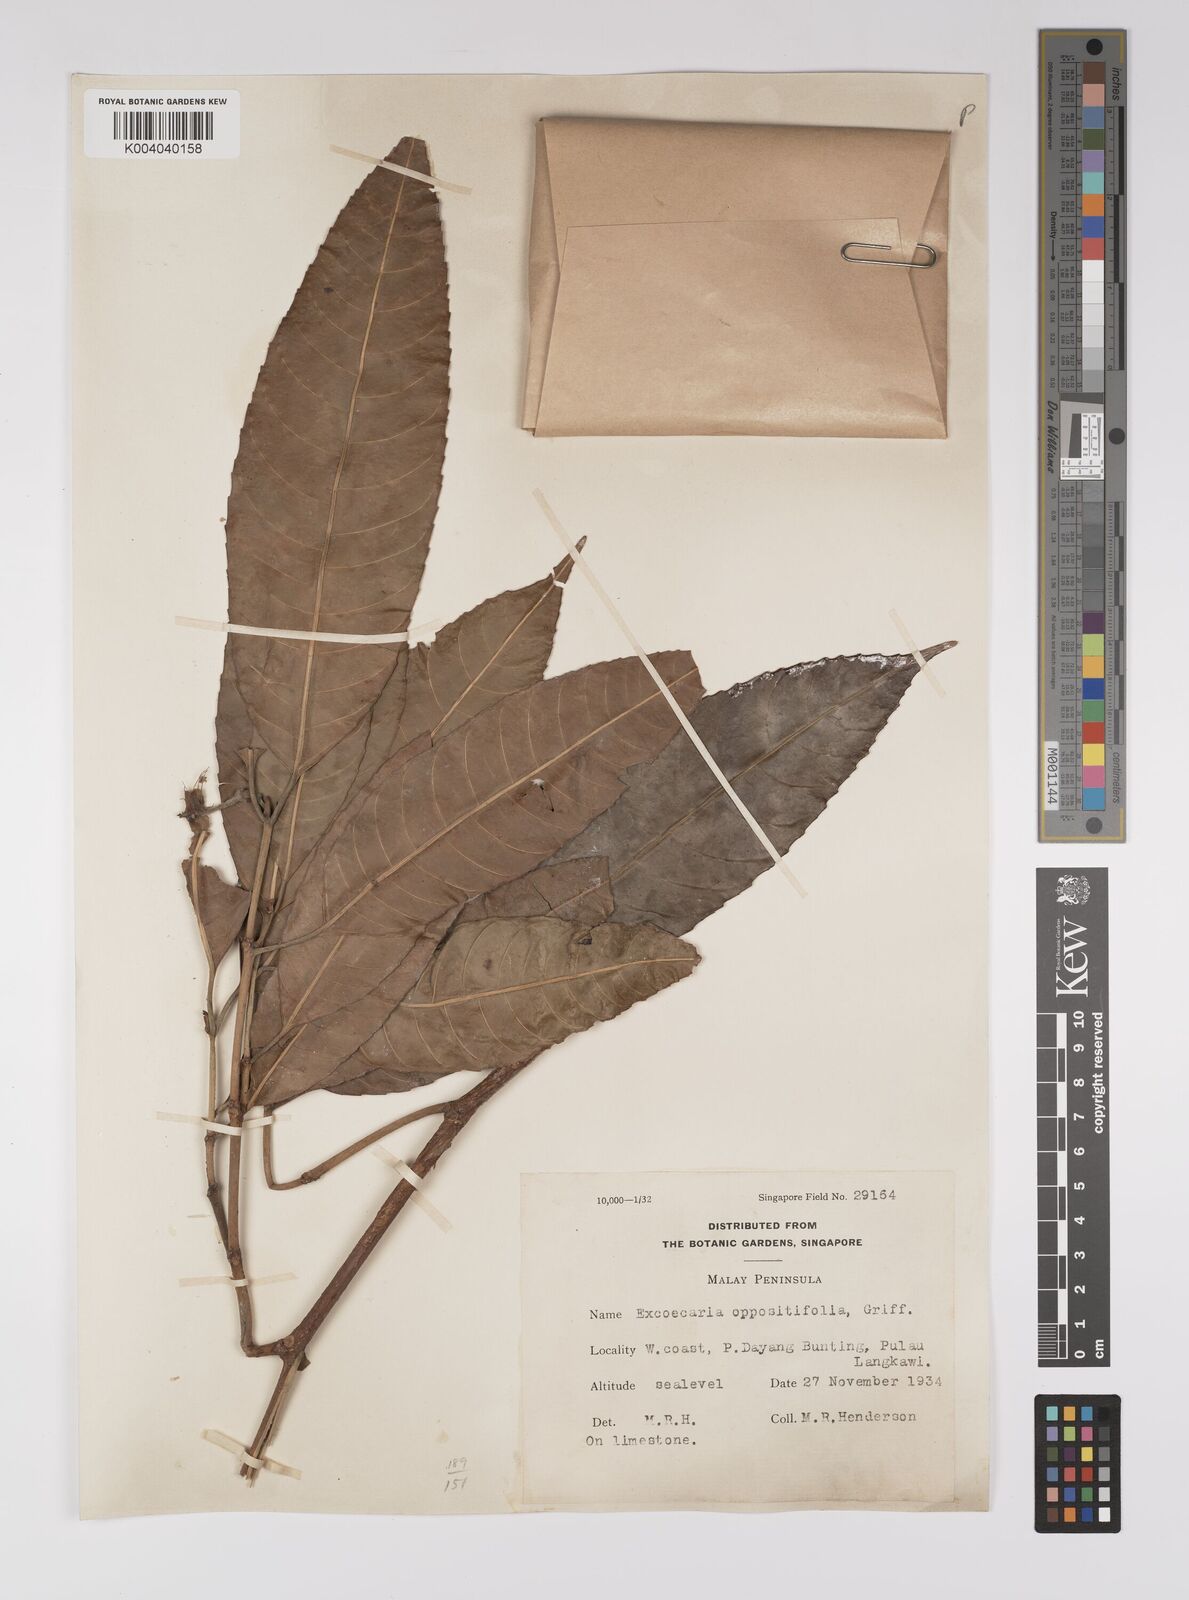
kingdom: Plantae
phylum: Tracheophyta
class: Magnoliopsida
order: Malpighiales
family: Euphorbiaceae
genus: Excoecaria
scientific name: Excoecaria oppositifolia
